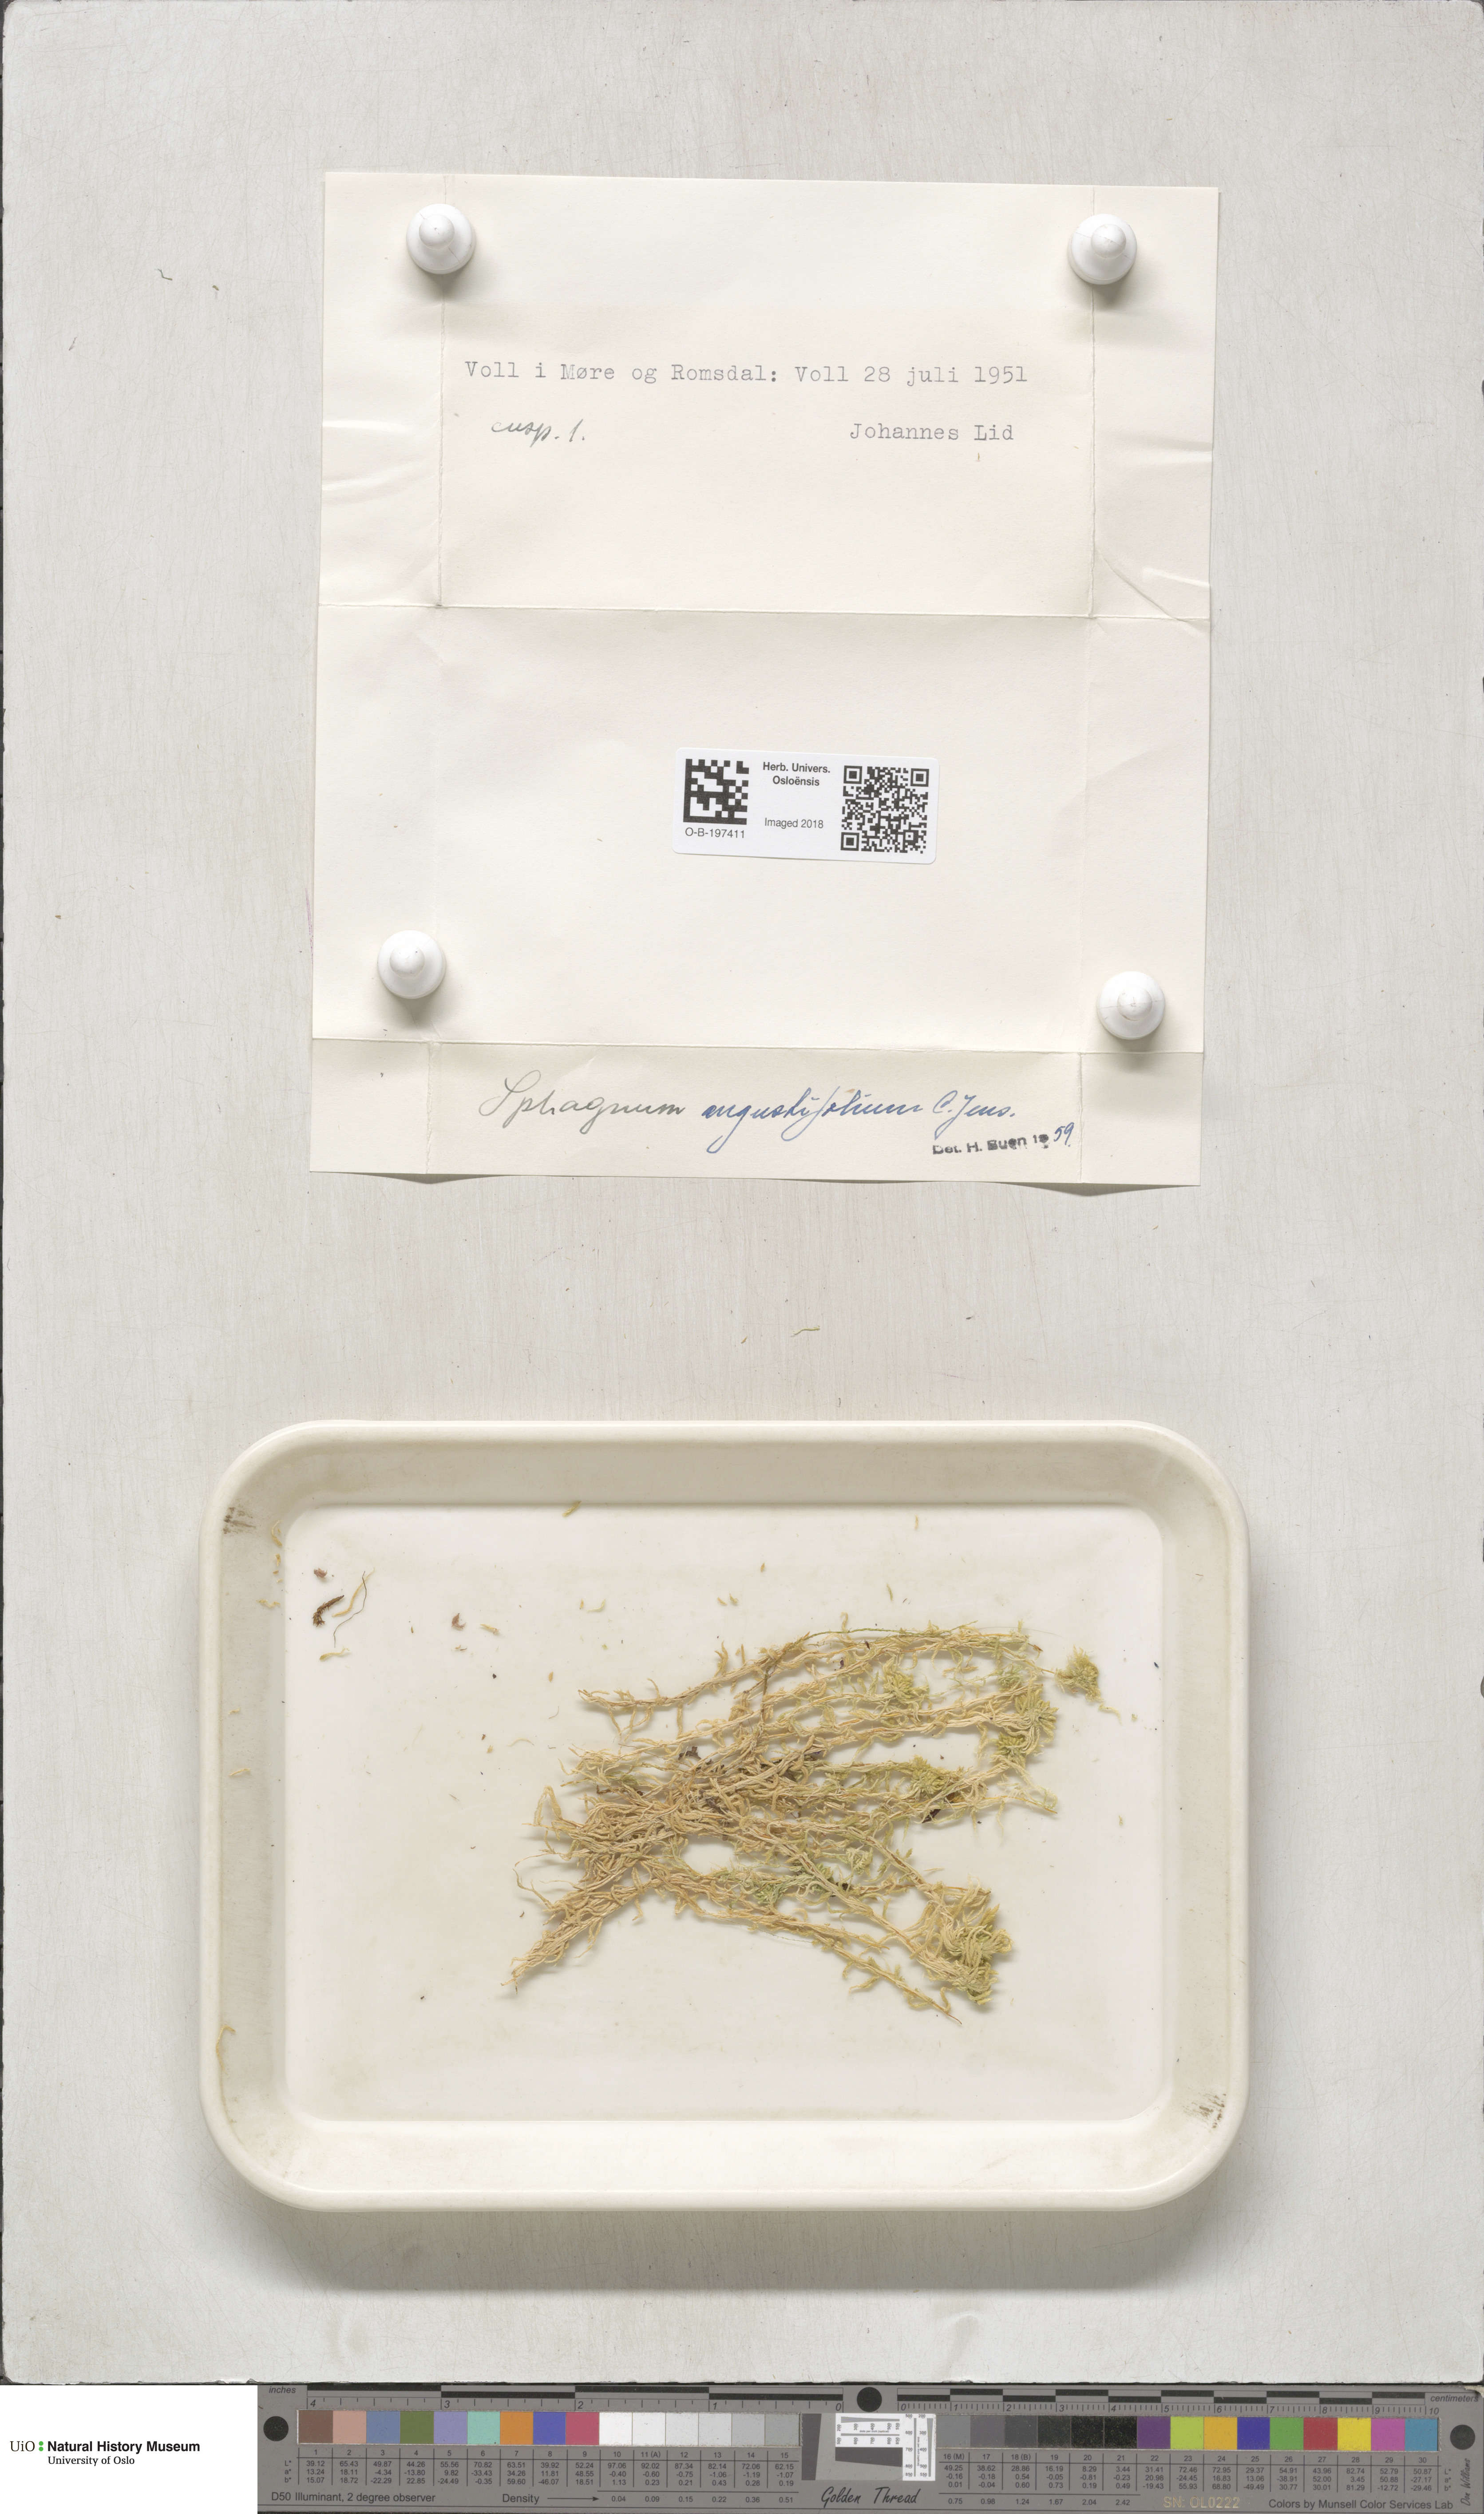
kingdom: Plantae
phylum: Bryophyta
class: Sphagnopsida
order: Sphagnales
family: Sphagnaceae
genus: Sphagnum
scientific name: Sphagnum angustifolium
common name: Narrow-leaved peat moss
